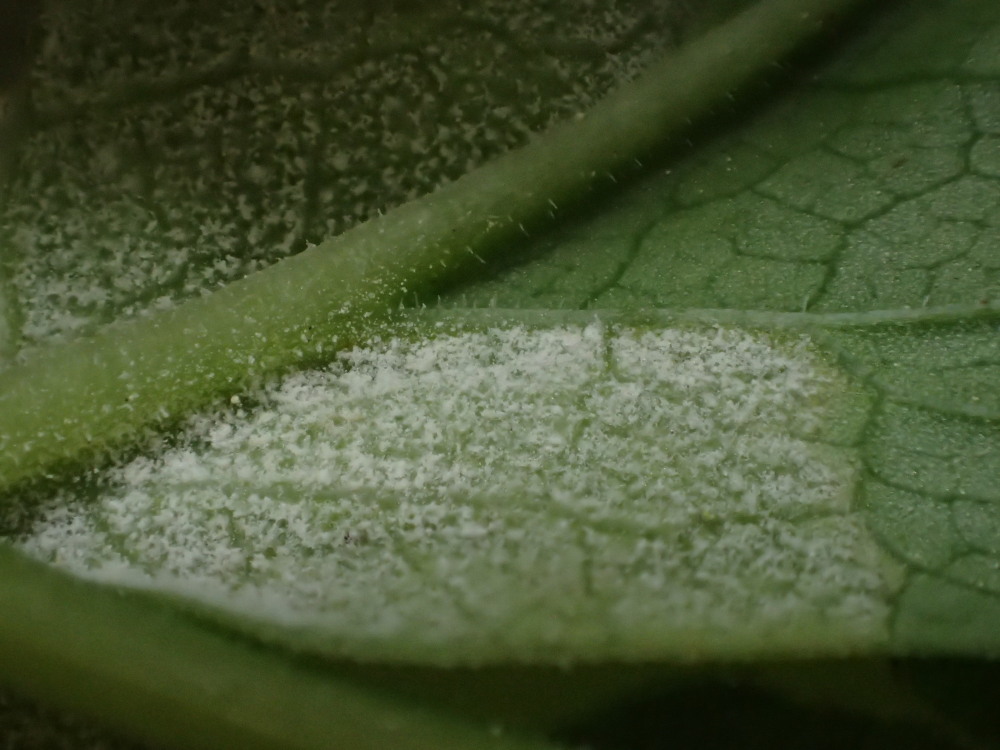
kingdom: Chromista
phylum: Oomycota
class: Peronosporea
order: Peronosporales
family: Peronosporaceae
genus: Peronospora
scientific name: Peronospora crustosa
